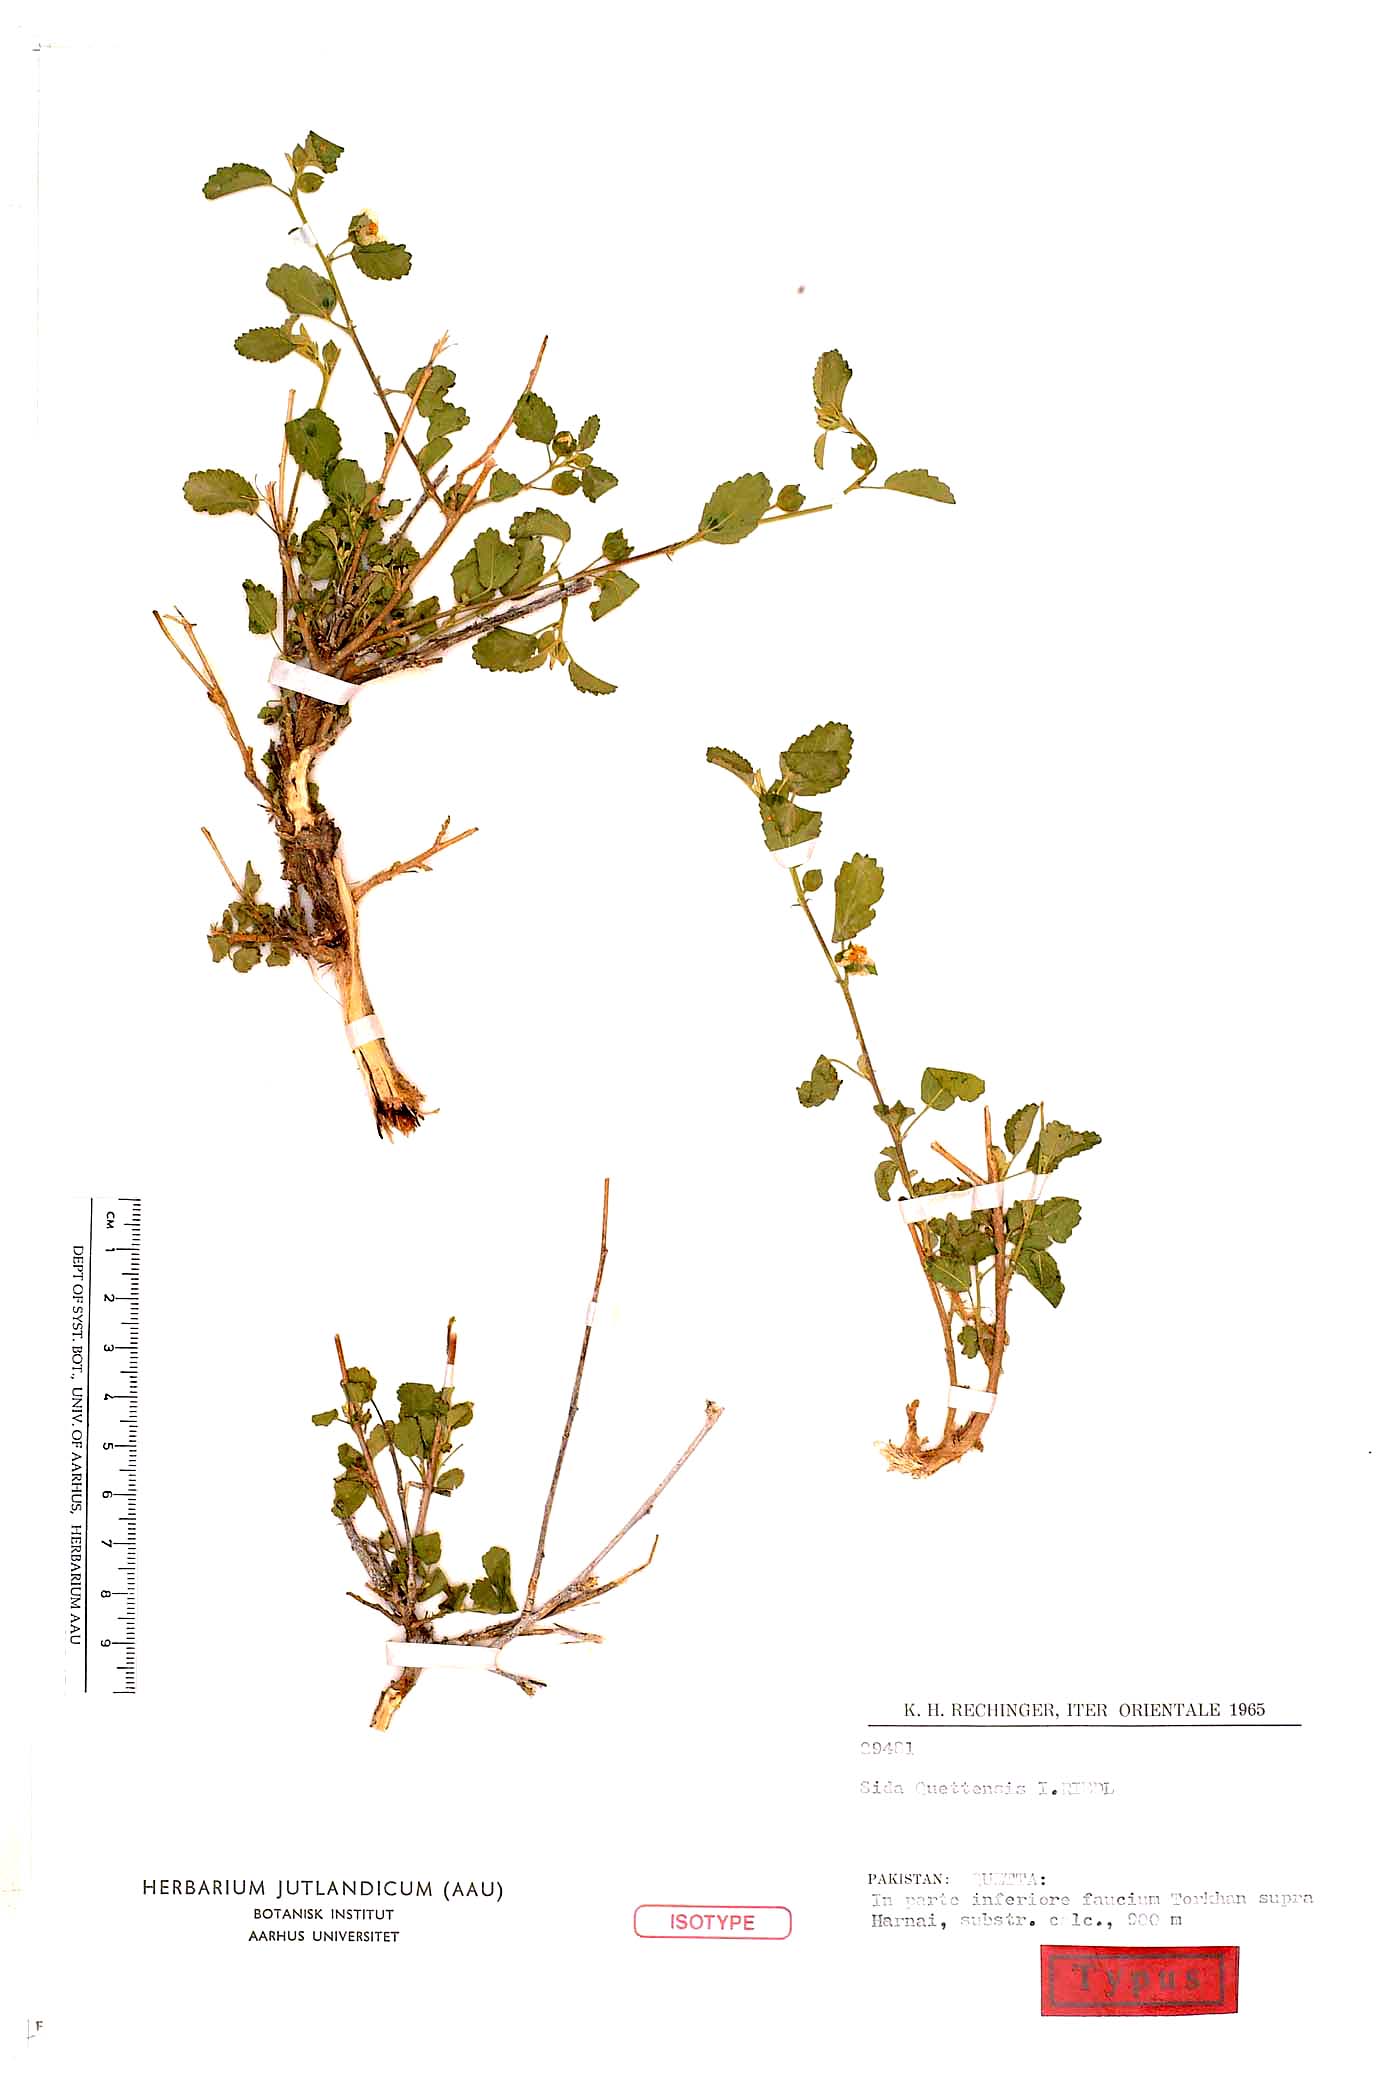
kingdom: Plantae
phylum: Tracheophyta
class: Magnoliopsida
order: Malvales
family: Malvaceae
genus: Sida
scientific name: Sida quettensis
